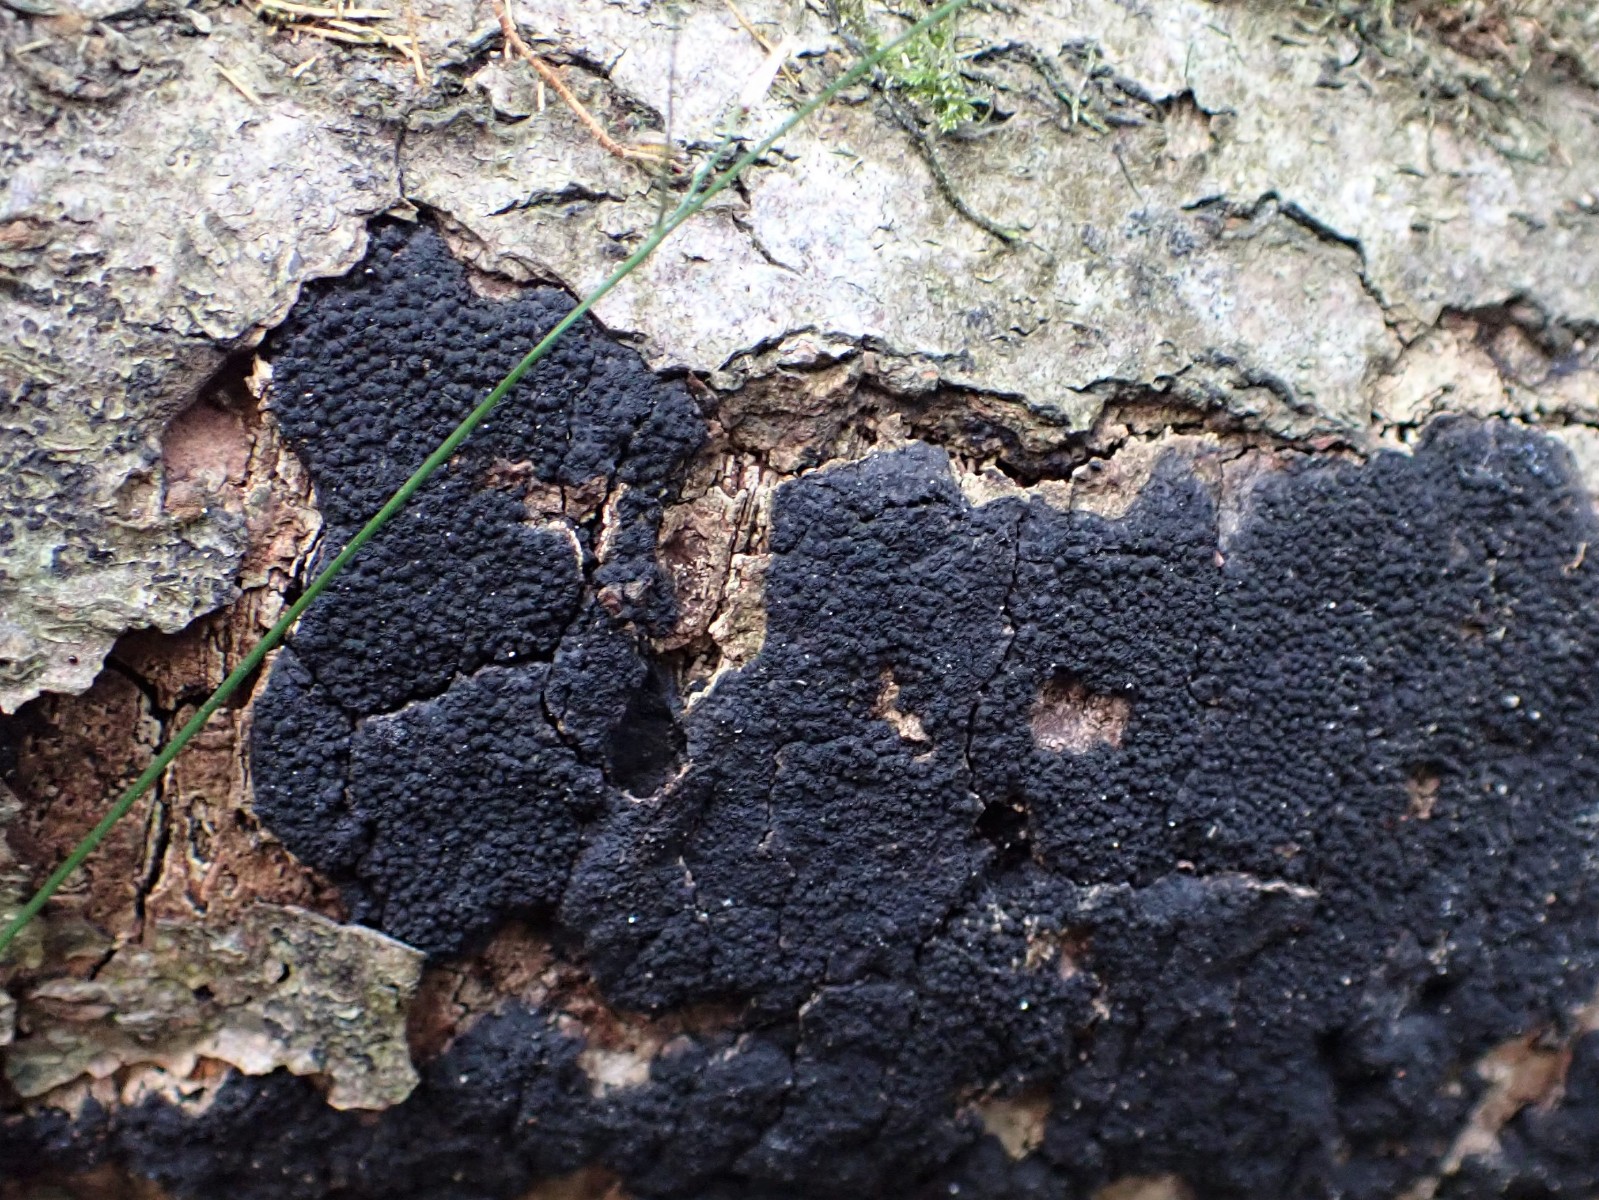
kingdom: Fungi
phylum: Ascomycota
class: Sordariomycetes
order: Xylariales
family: Diatrypaceae
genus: Eutypa
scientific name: Eutypa spinosa
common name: grov kulskorpe
